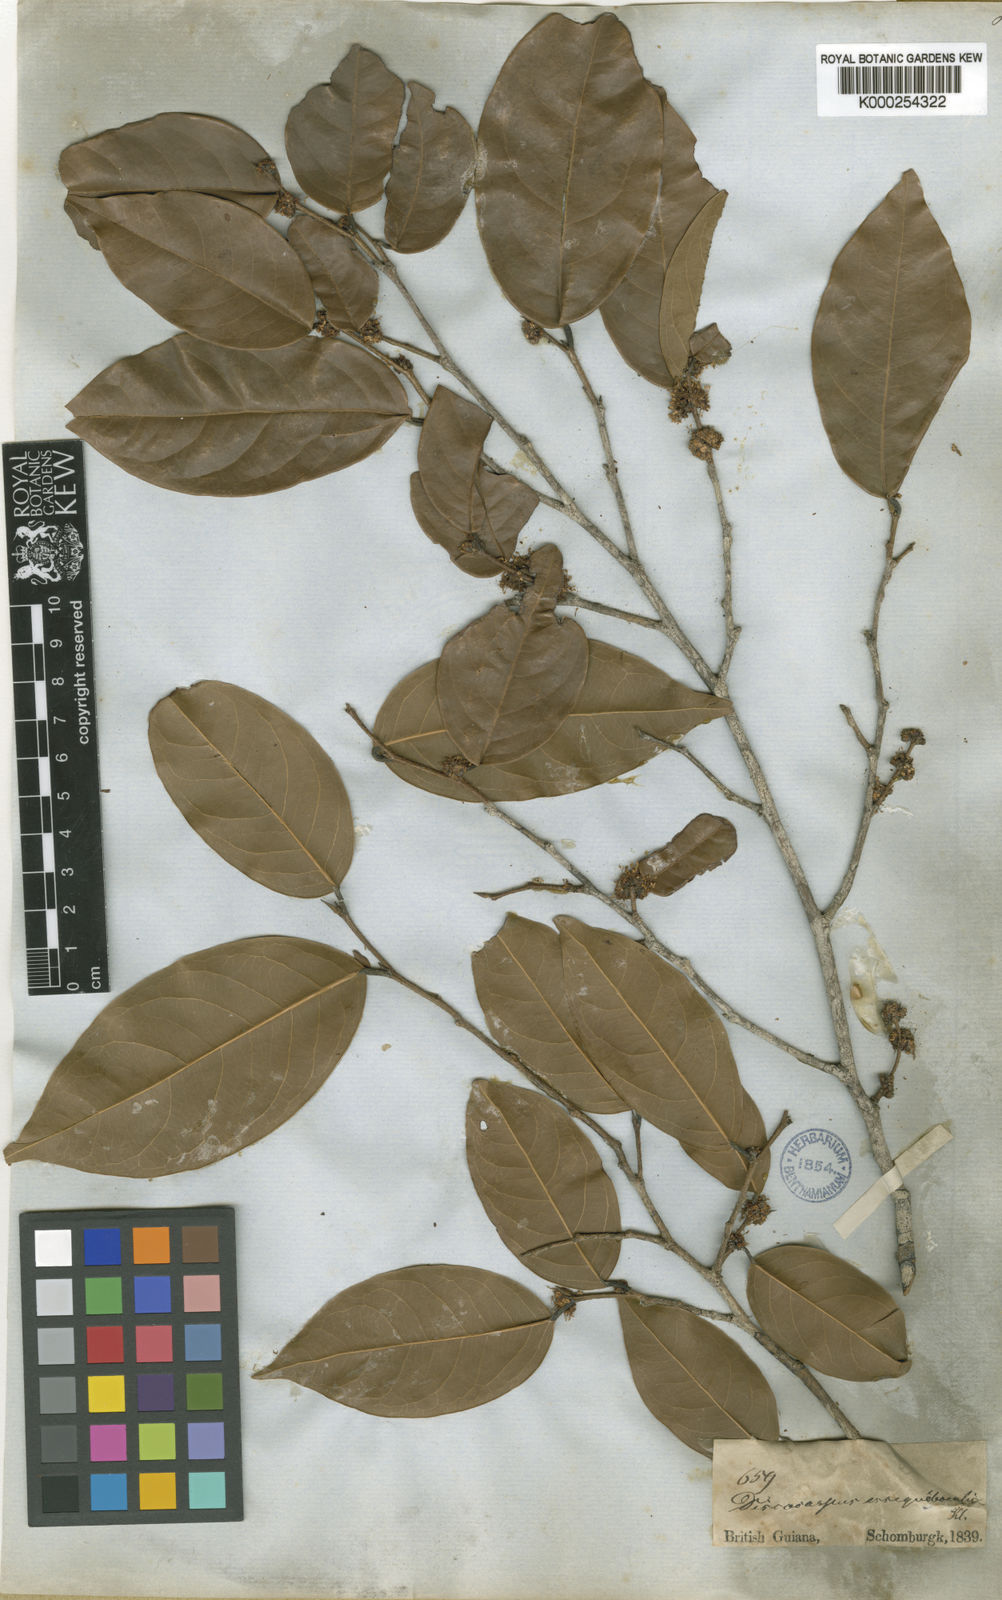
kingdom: Plantae
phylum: Tracheophyta
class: Magnoliopsida
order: Malpighiales
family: Phyllanthaceae
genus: Discocarpus
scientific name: Discocarpus essequeboensis
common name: Sqaure-wood
